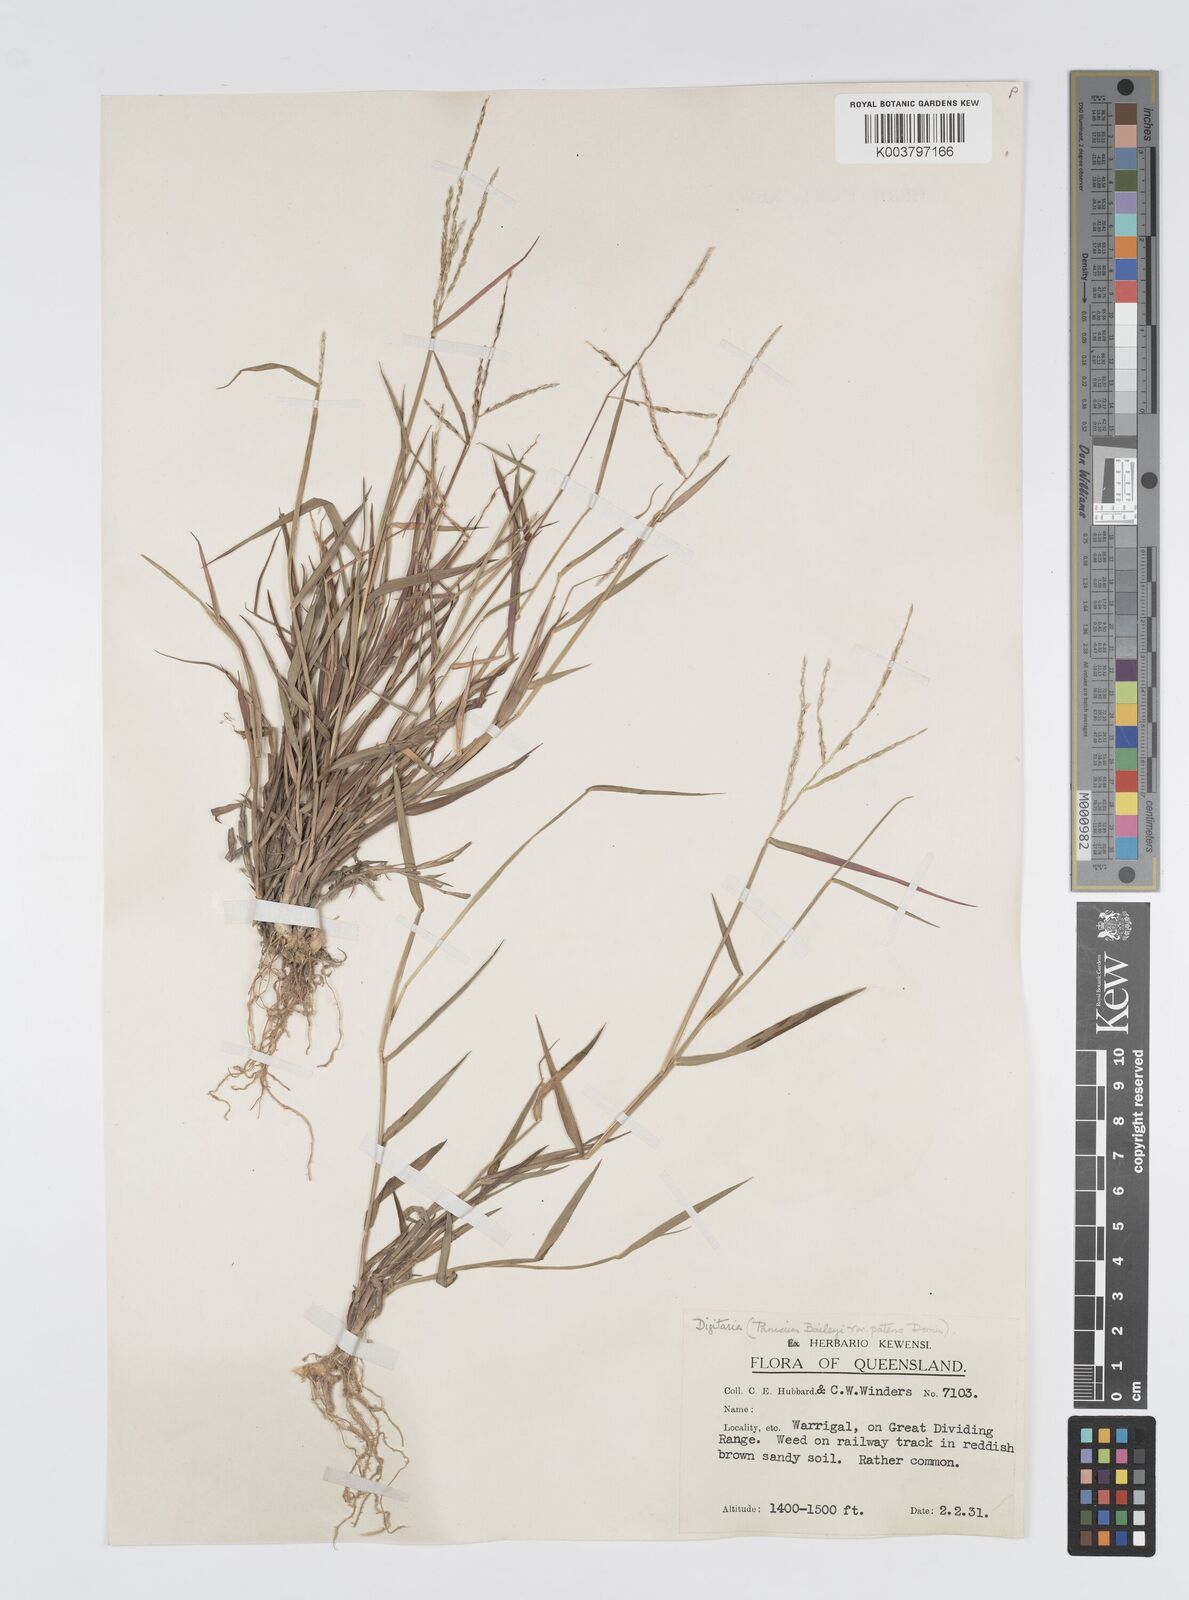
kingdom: Plantae
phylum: Tracheophyta
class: Liliopsida
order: Poales
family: Poaceae
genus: Digitaria
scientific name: Digitaria spec
